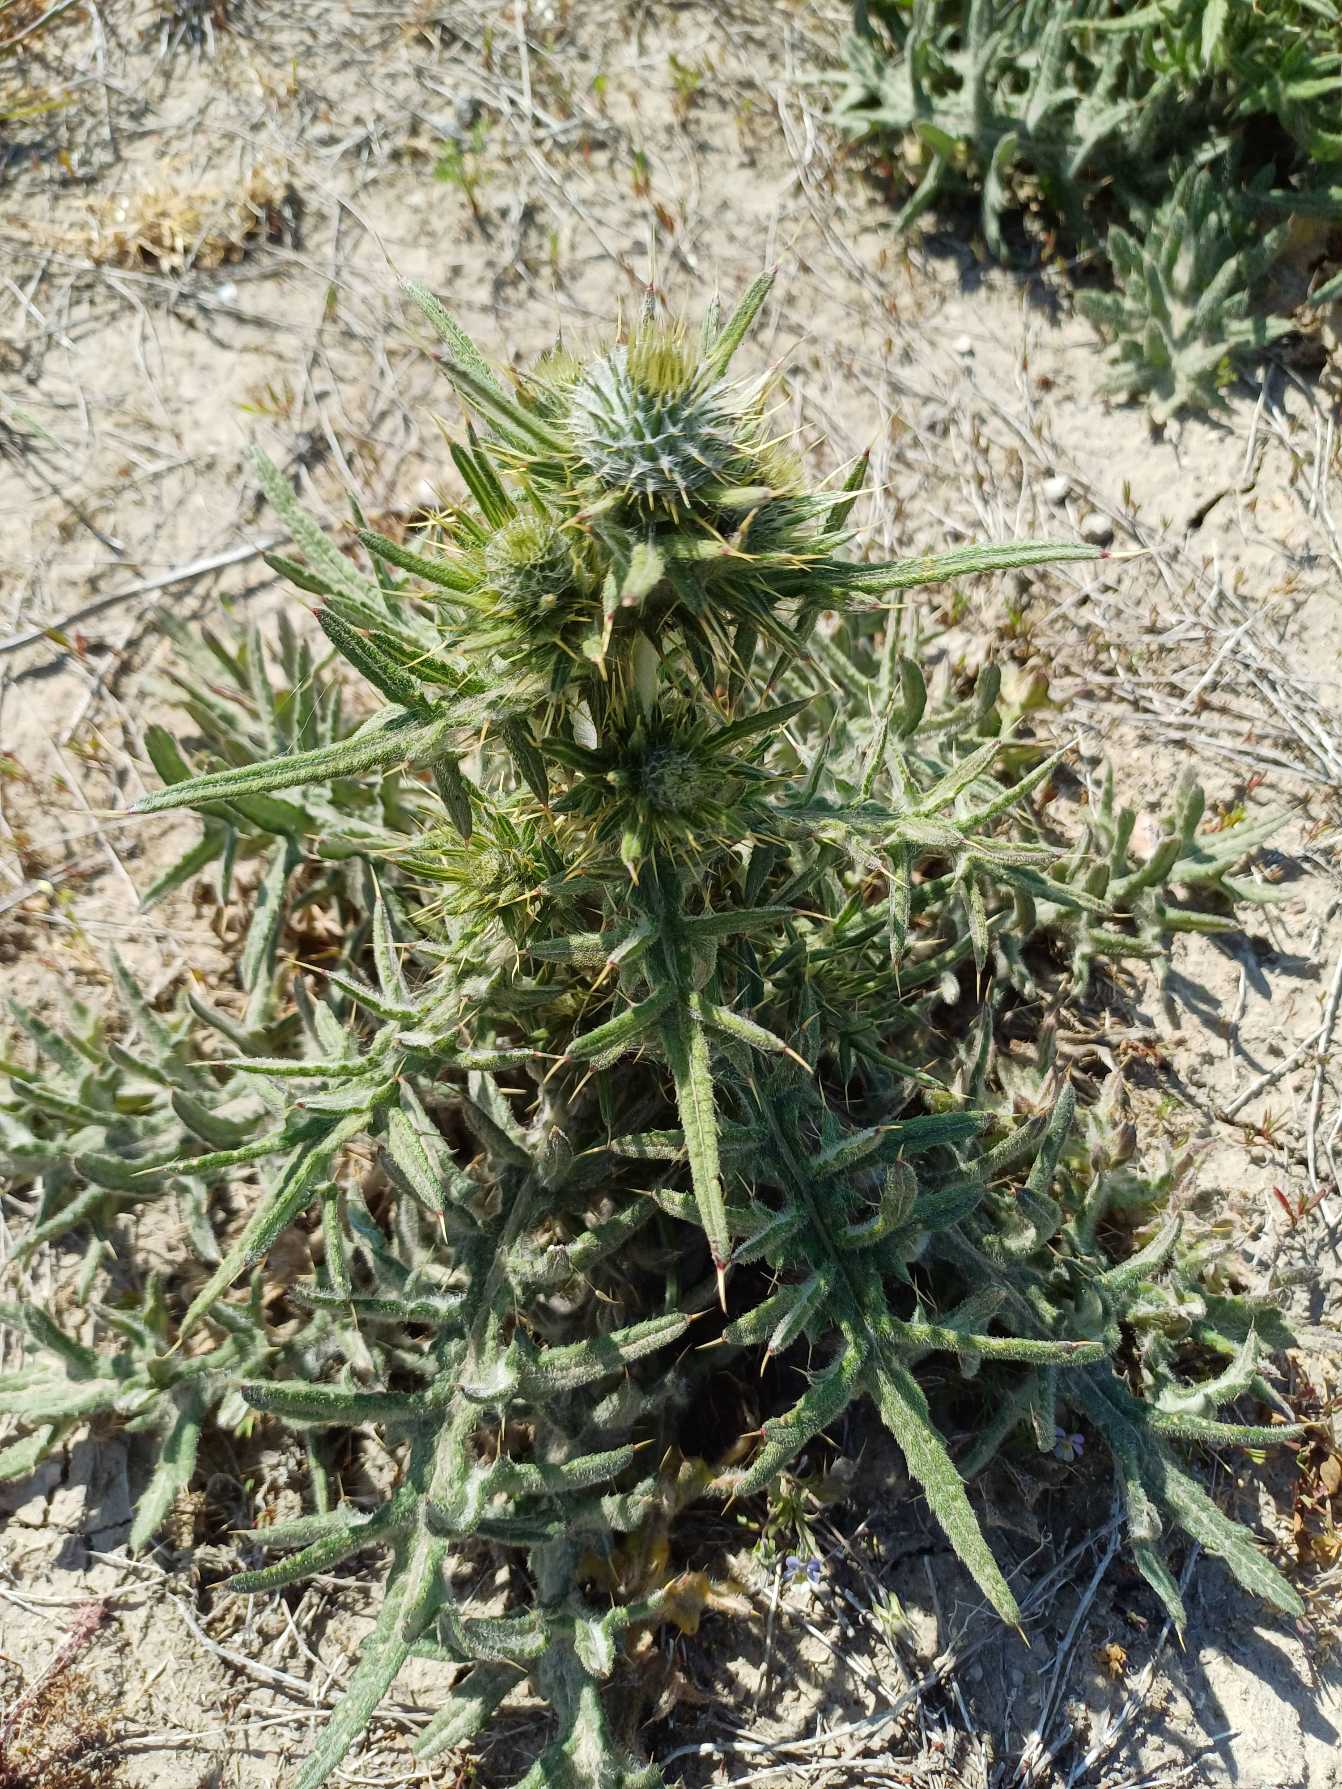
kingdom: Plantae
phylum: Tracheophyta
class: Magnoliopsida
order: Asterales
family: Asteraceae
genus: Cirsium
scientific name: Cirsium vulgare
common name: Horse-tidsel
